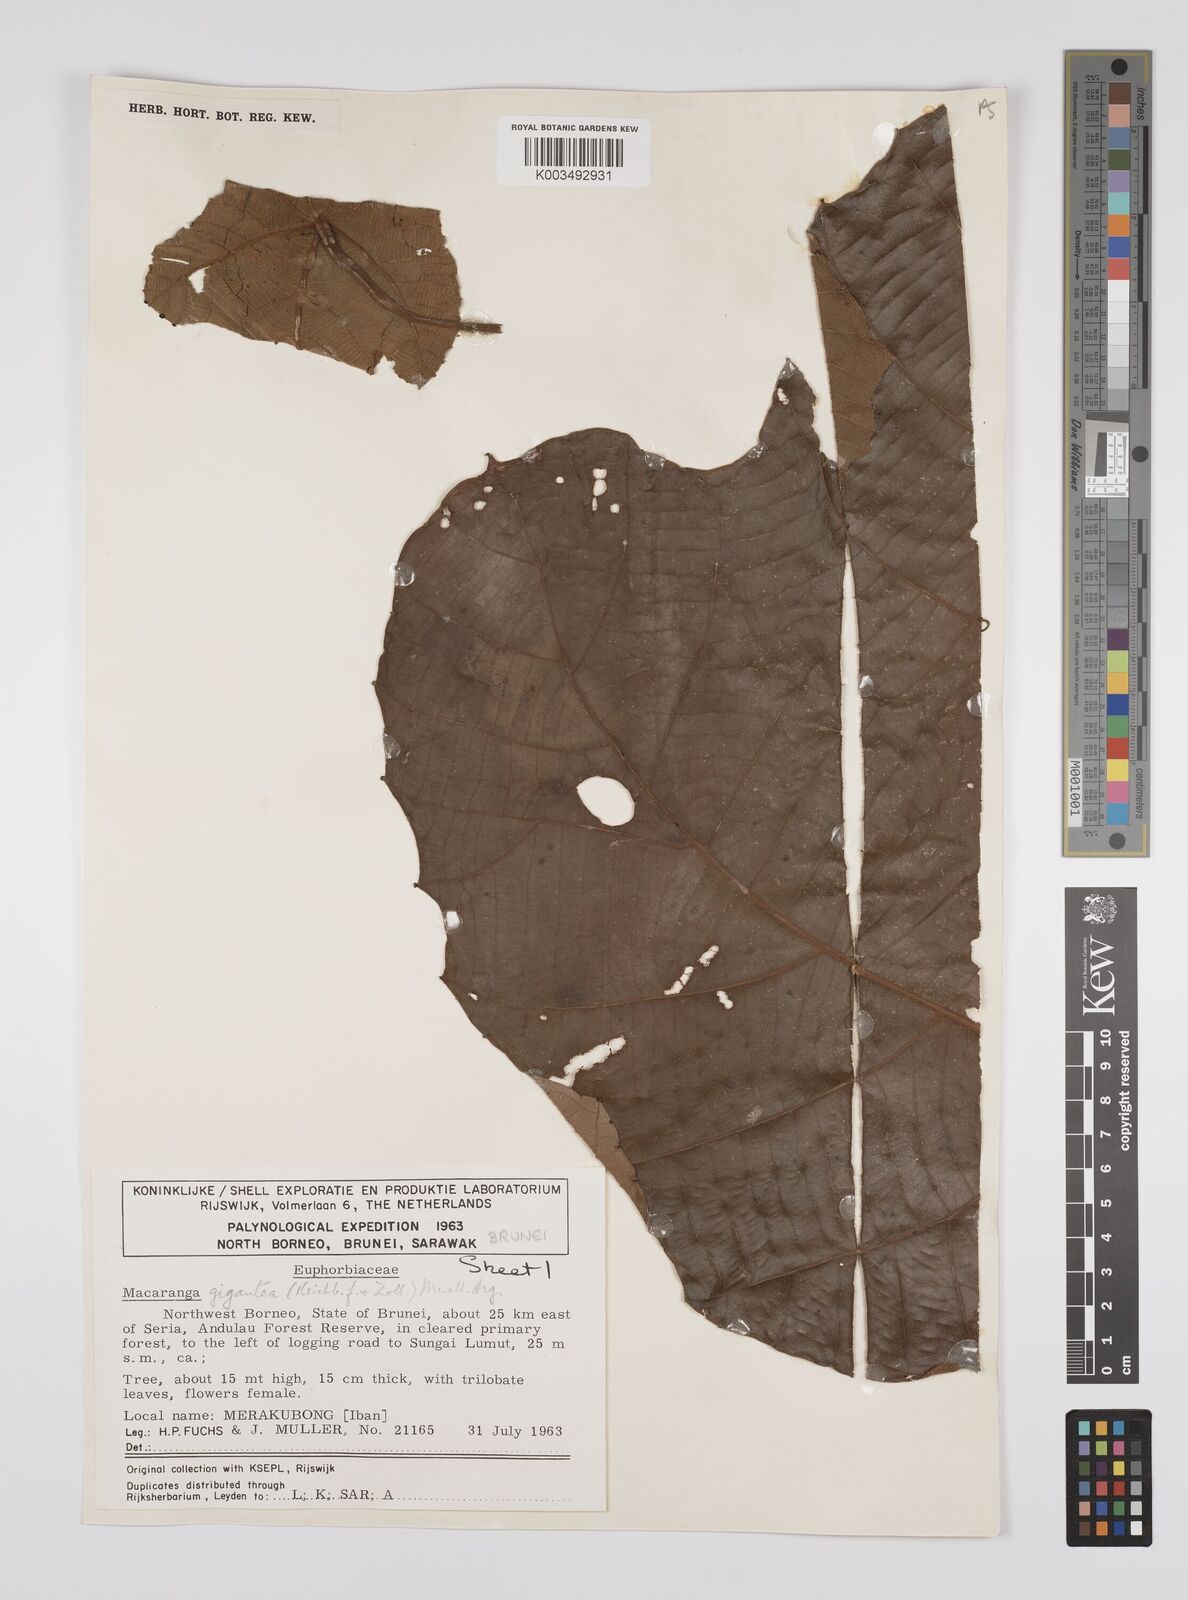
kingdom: Plantae
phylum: Tracheophyta
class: Magnoliopsida
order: Malpighiales
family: Euphorbiaceae
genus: Macaranga
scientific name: Macaranga gigantea
